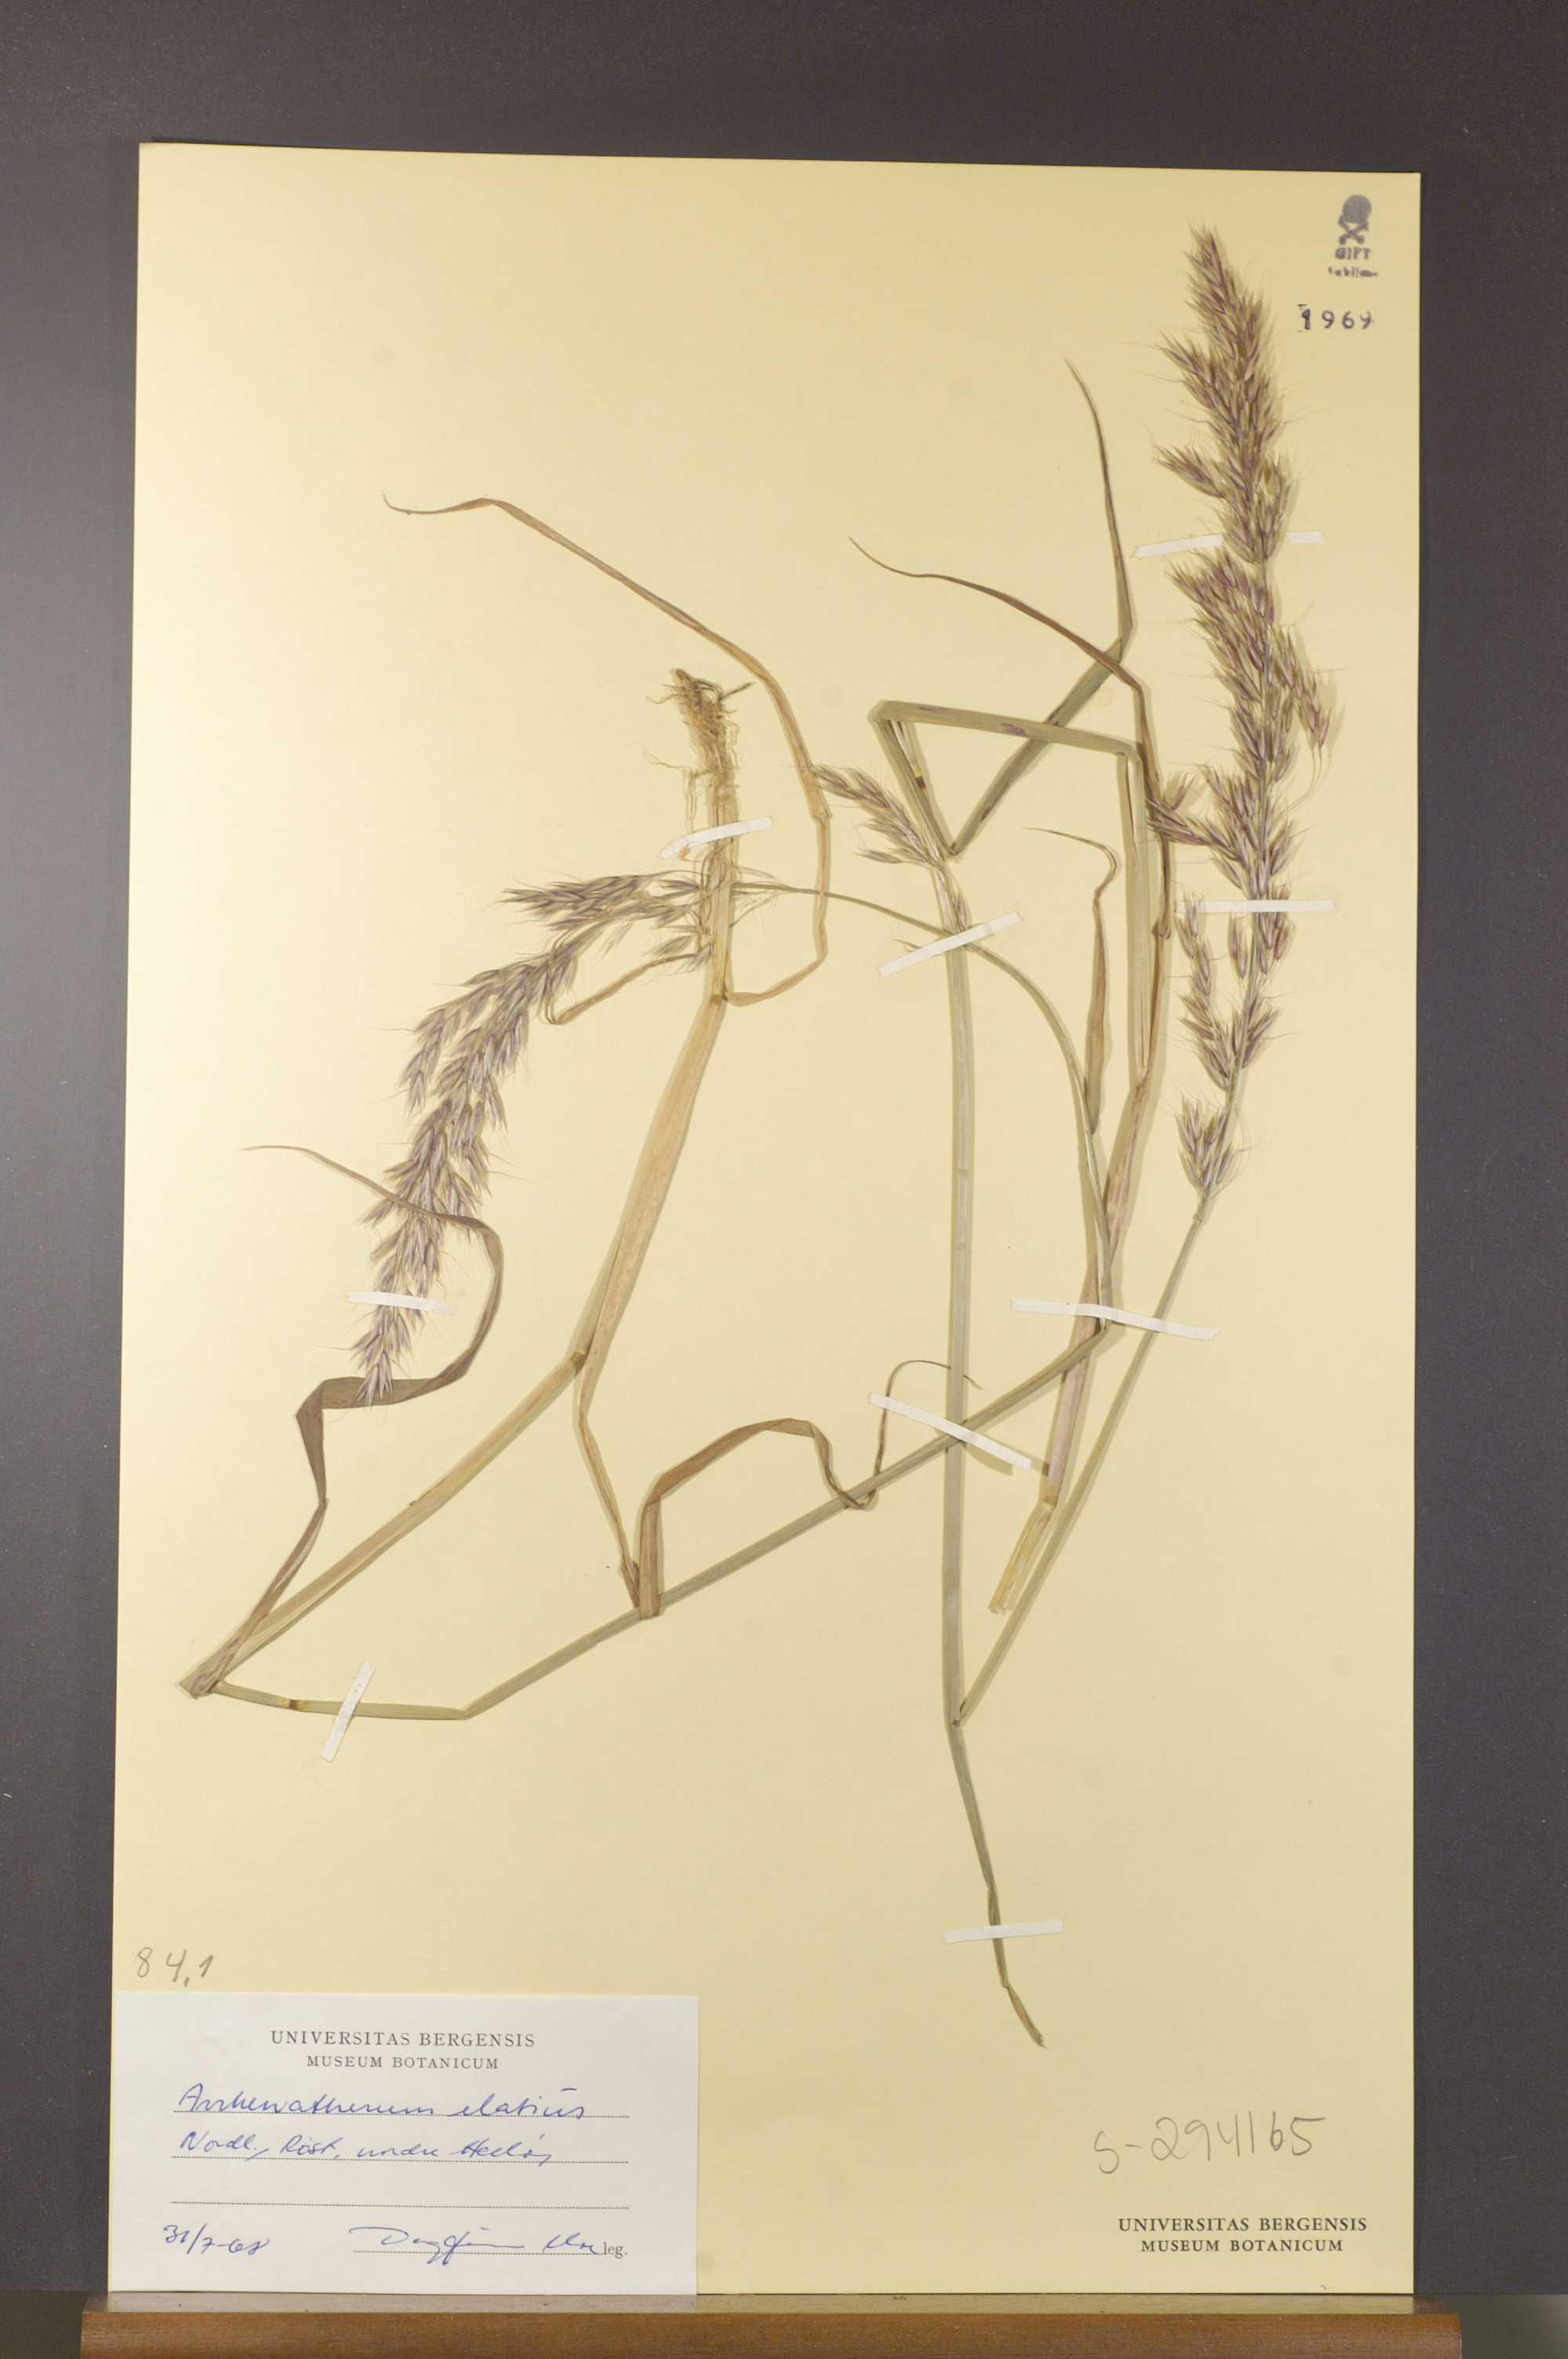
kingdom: Plantae
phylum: Tracheophyta
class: Liliopsida
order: Poales
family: Poaceae
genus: Arrhenatherum
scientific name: Arrhenatherum elatius
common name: Tall oatgrass
